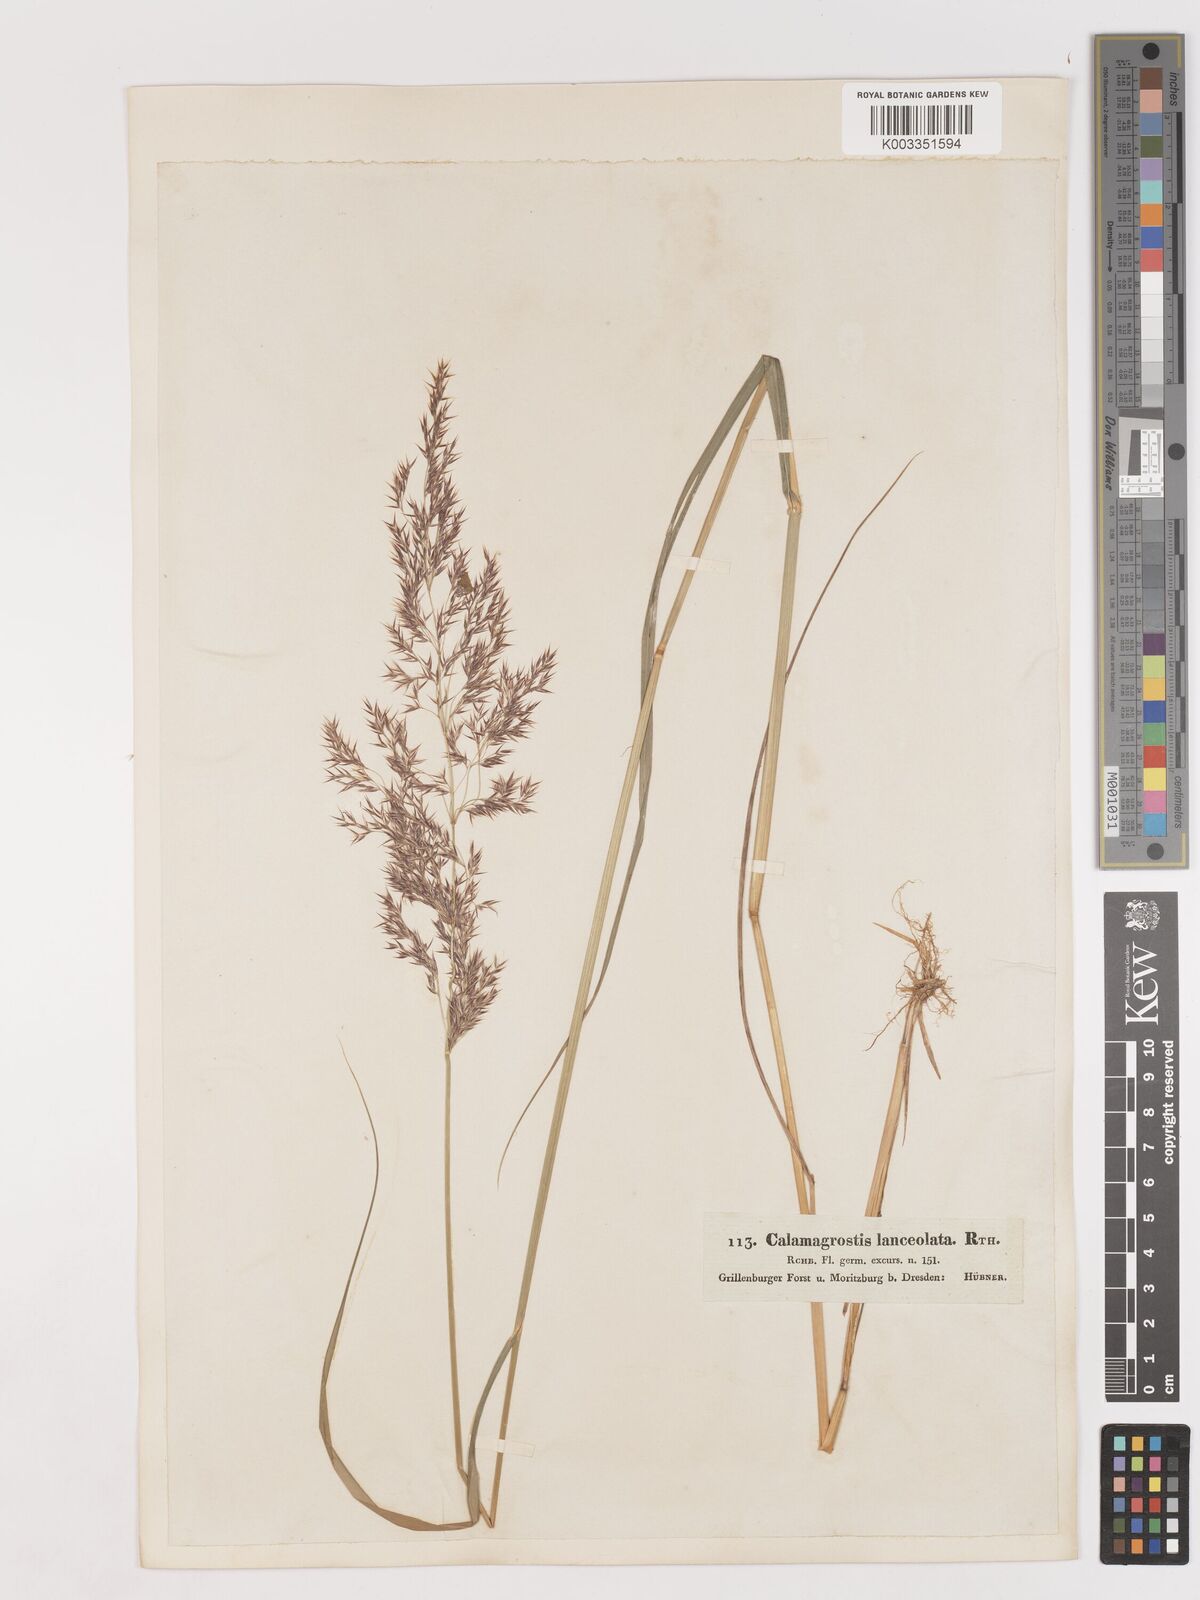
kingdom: Plantae
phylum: Tracheophyta
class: Liliopsida
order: Poales
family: Poaceae
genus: Calamagrostis
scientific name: Calamagrostis canescens
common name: Purple small-reed
